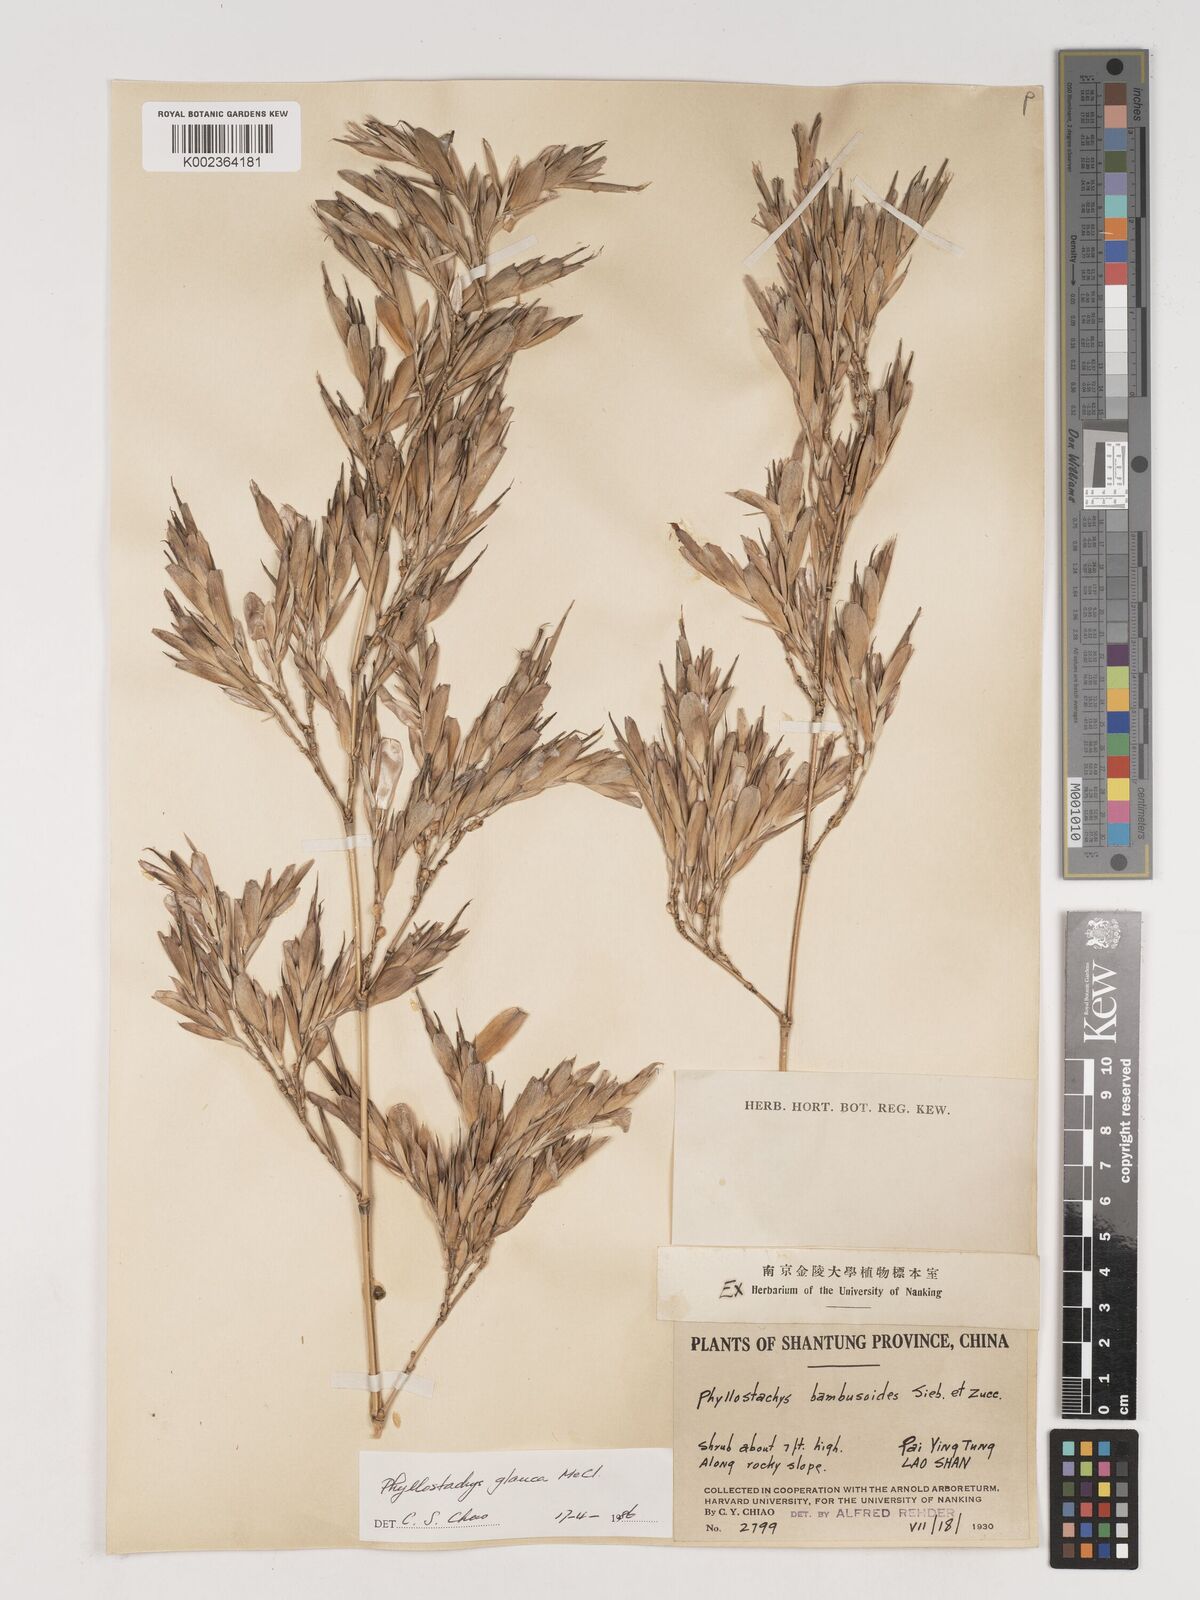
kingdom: Plantae
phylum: Tracheophyta
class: Liliopsida
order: Poales
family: Poaceae
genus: Phyllostachys
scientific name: Phyllostachys glauca
